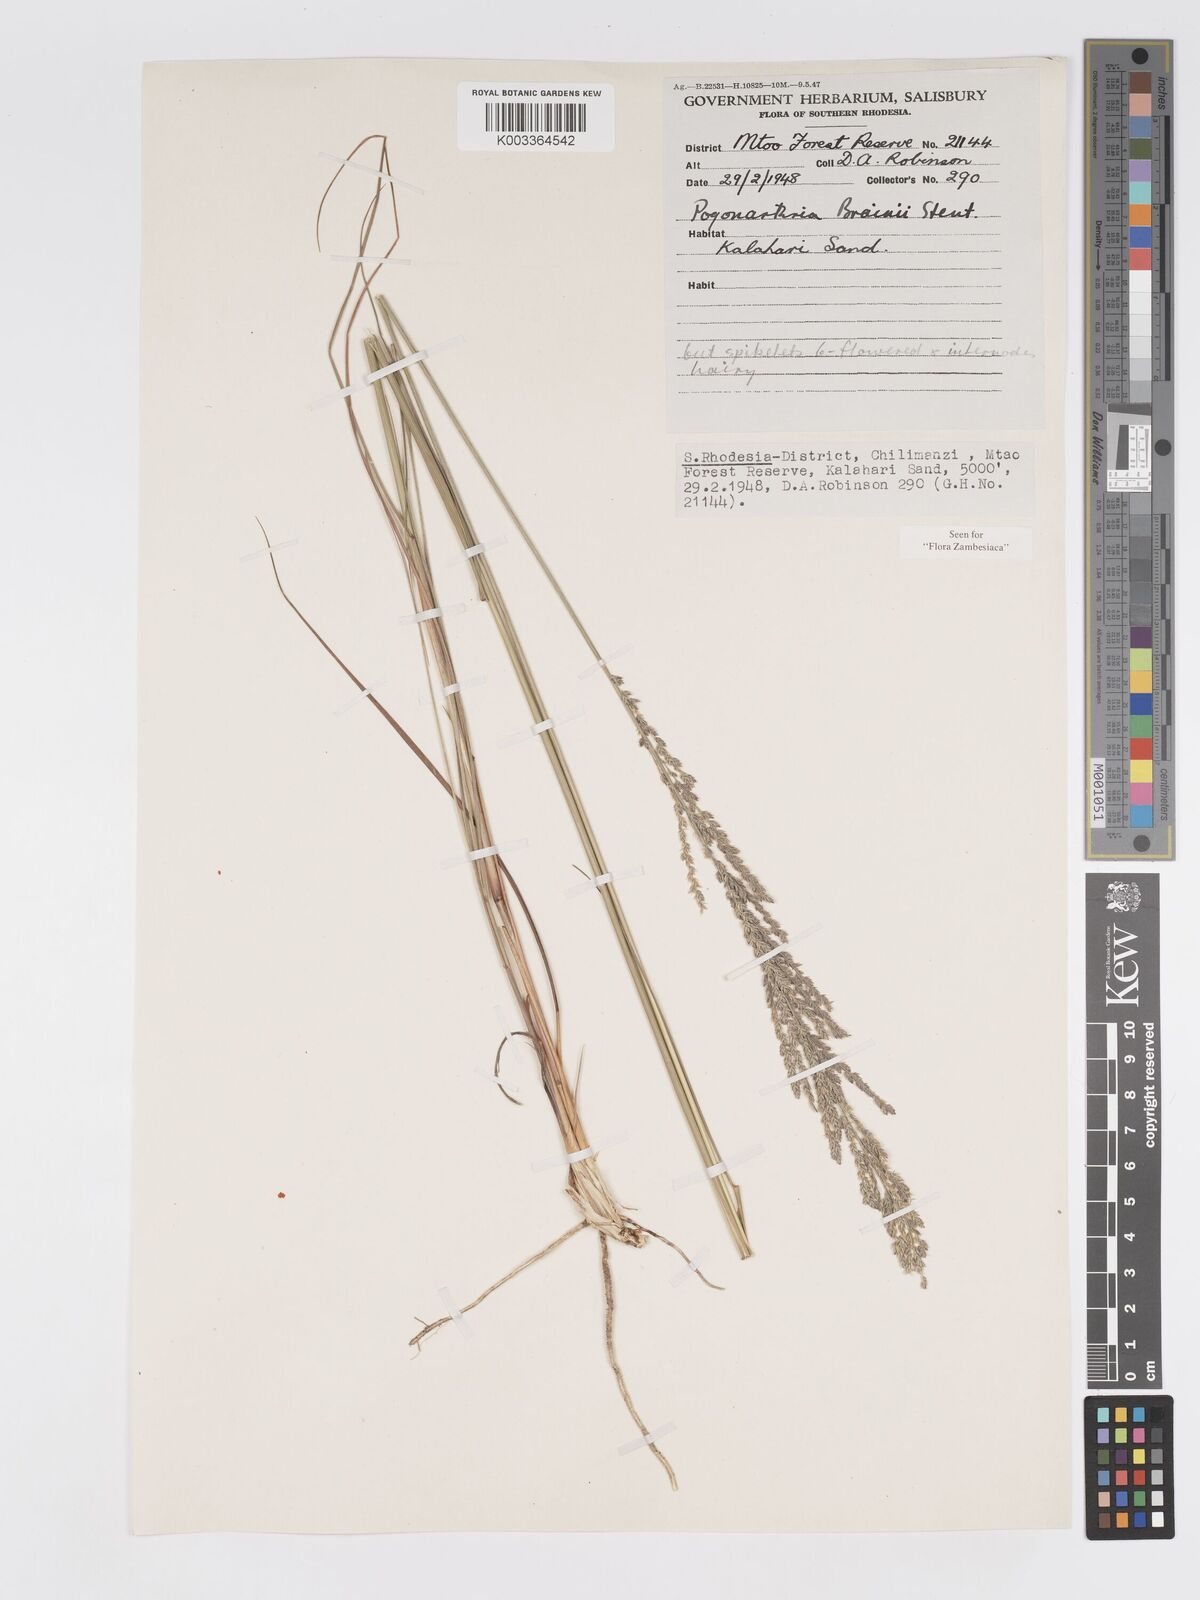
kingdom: Plantae
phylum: Tracheophyta
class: Liliopsida
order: Poales
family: Poaceae
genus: Eragrostis
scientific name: Eragrostis brainii
